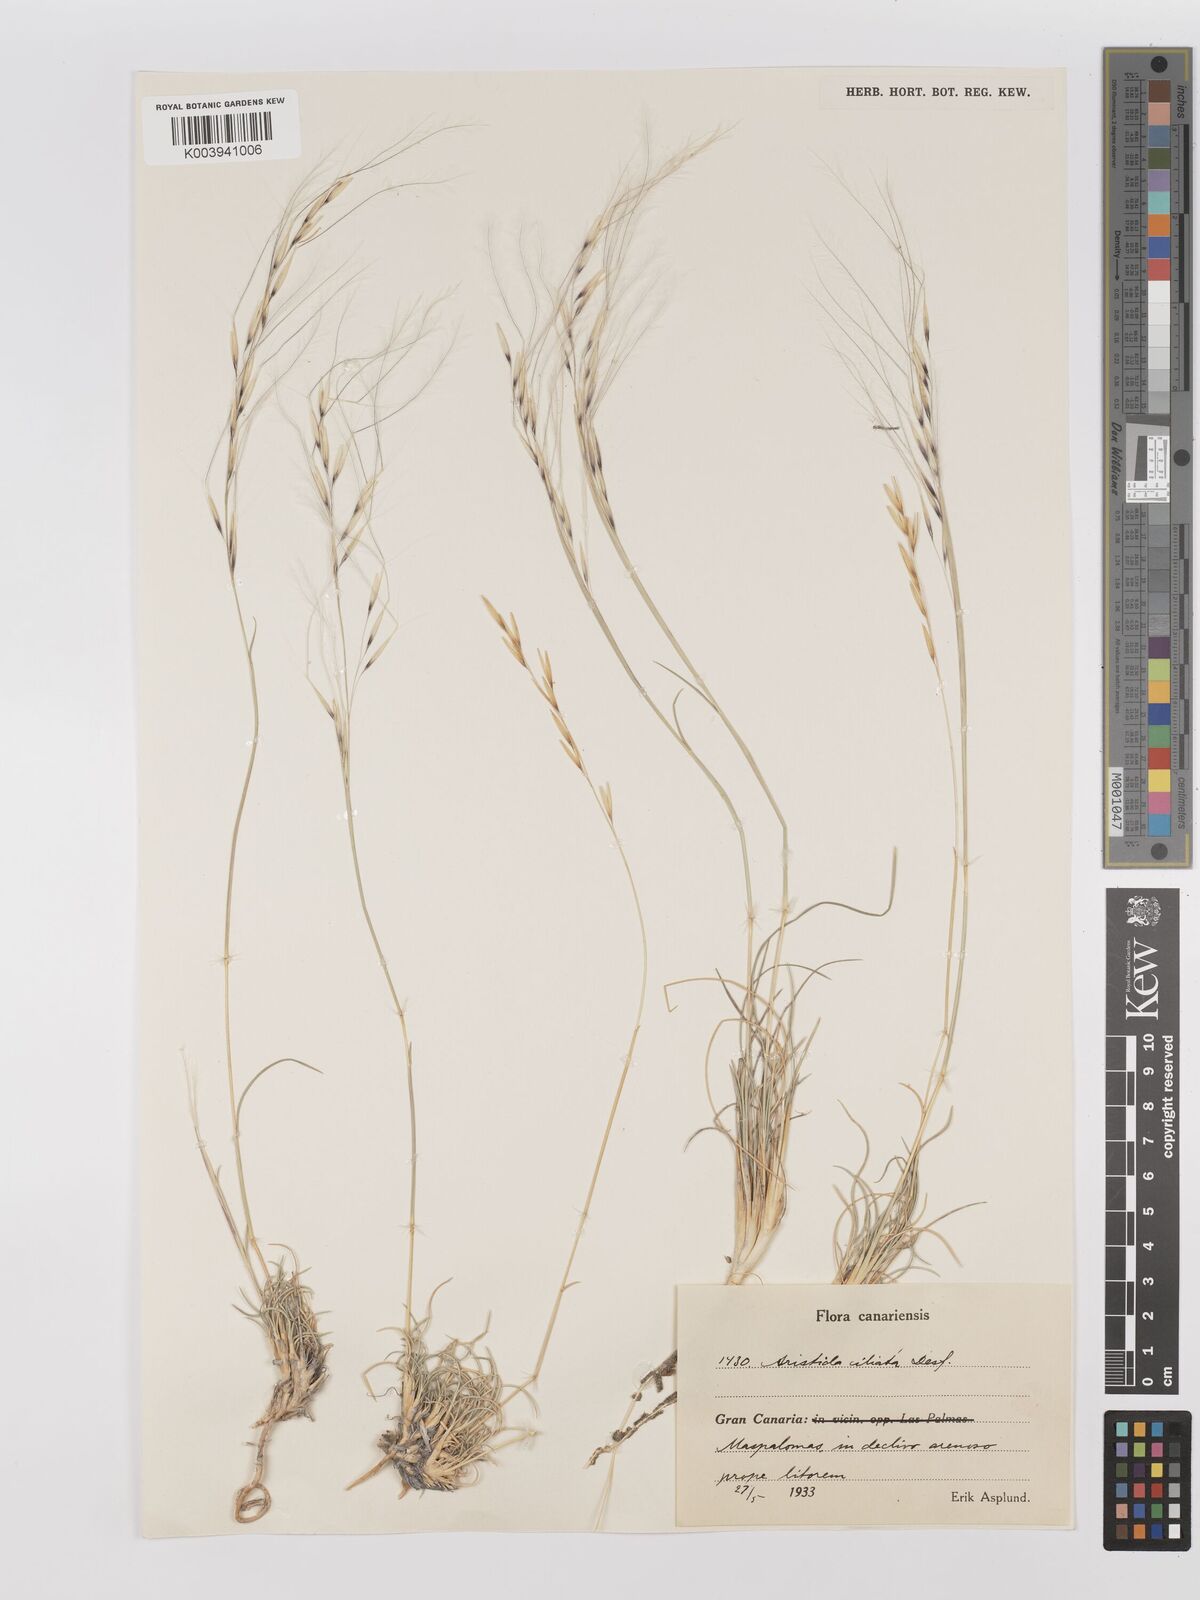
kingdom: Plantae
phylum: Tracheophyta
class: Liliopsida
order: Poales
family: Poaceae
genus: Stipagrostis
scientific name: Stipagrostis ciliata
